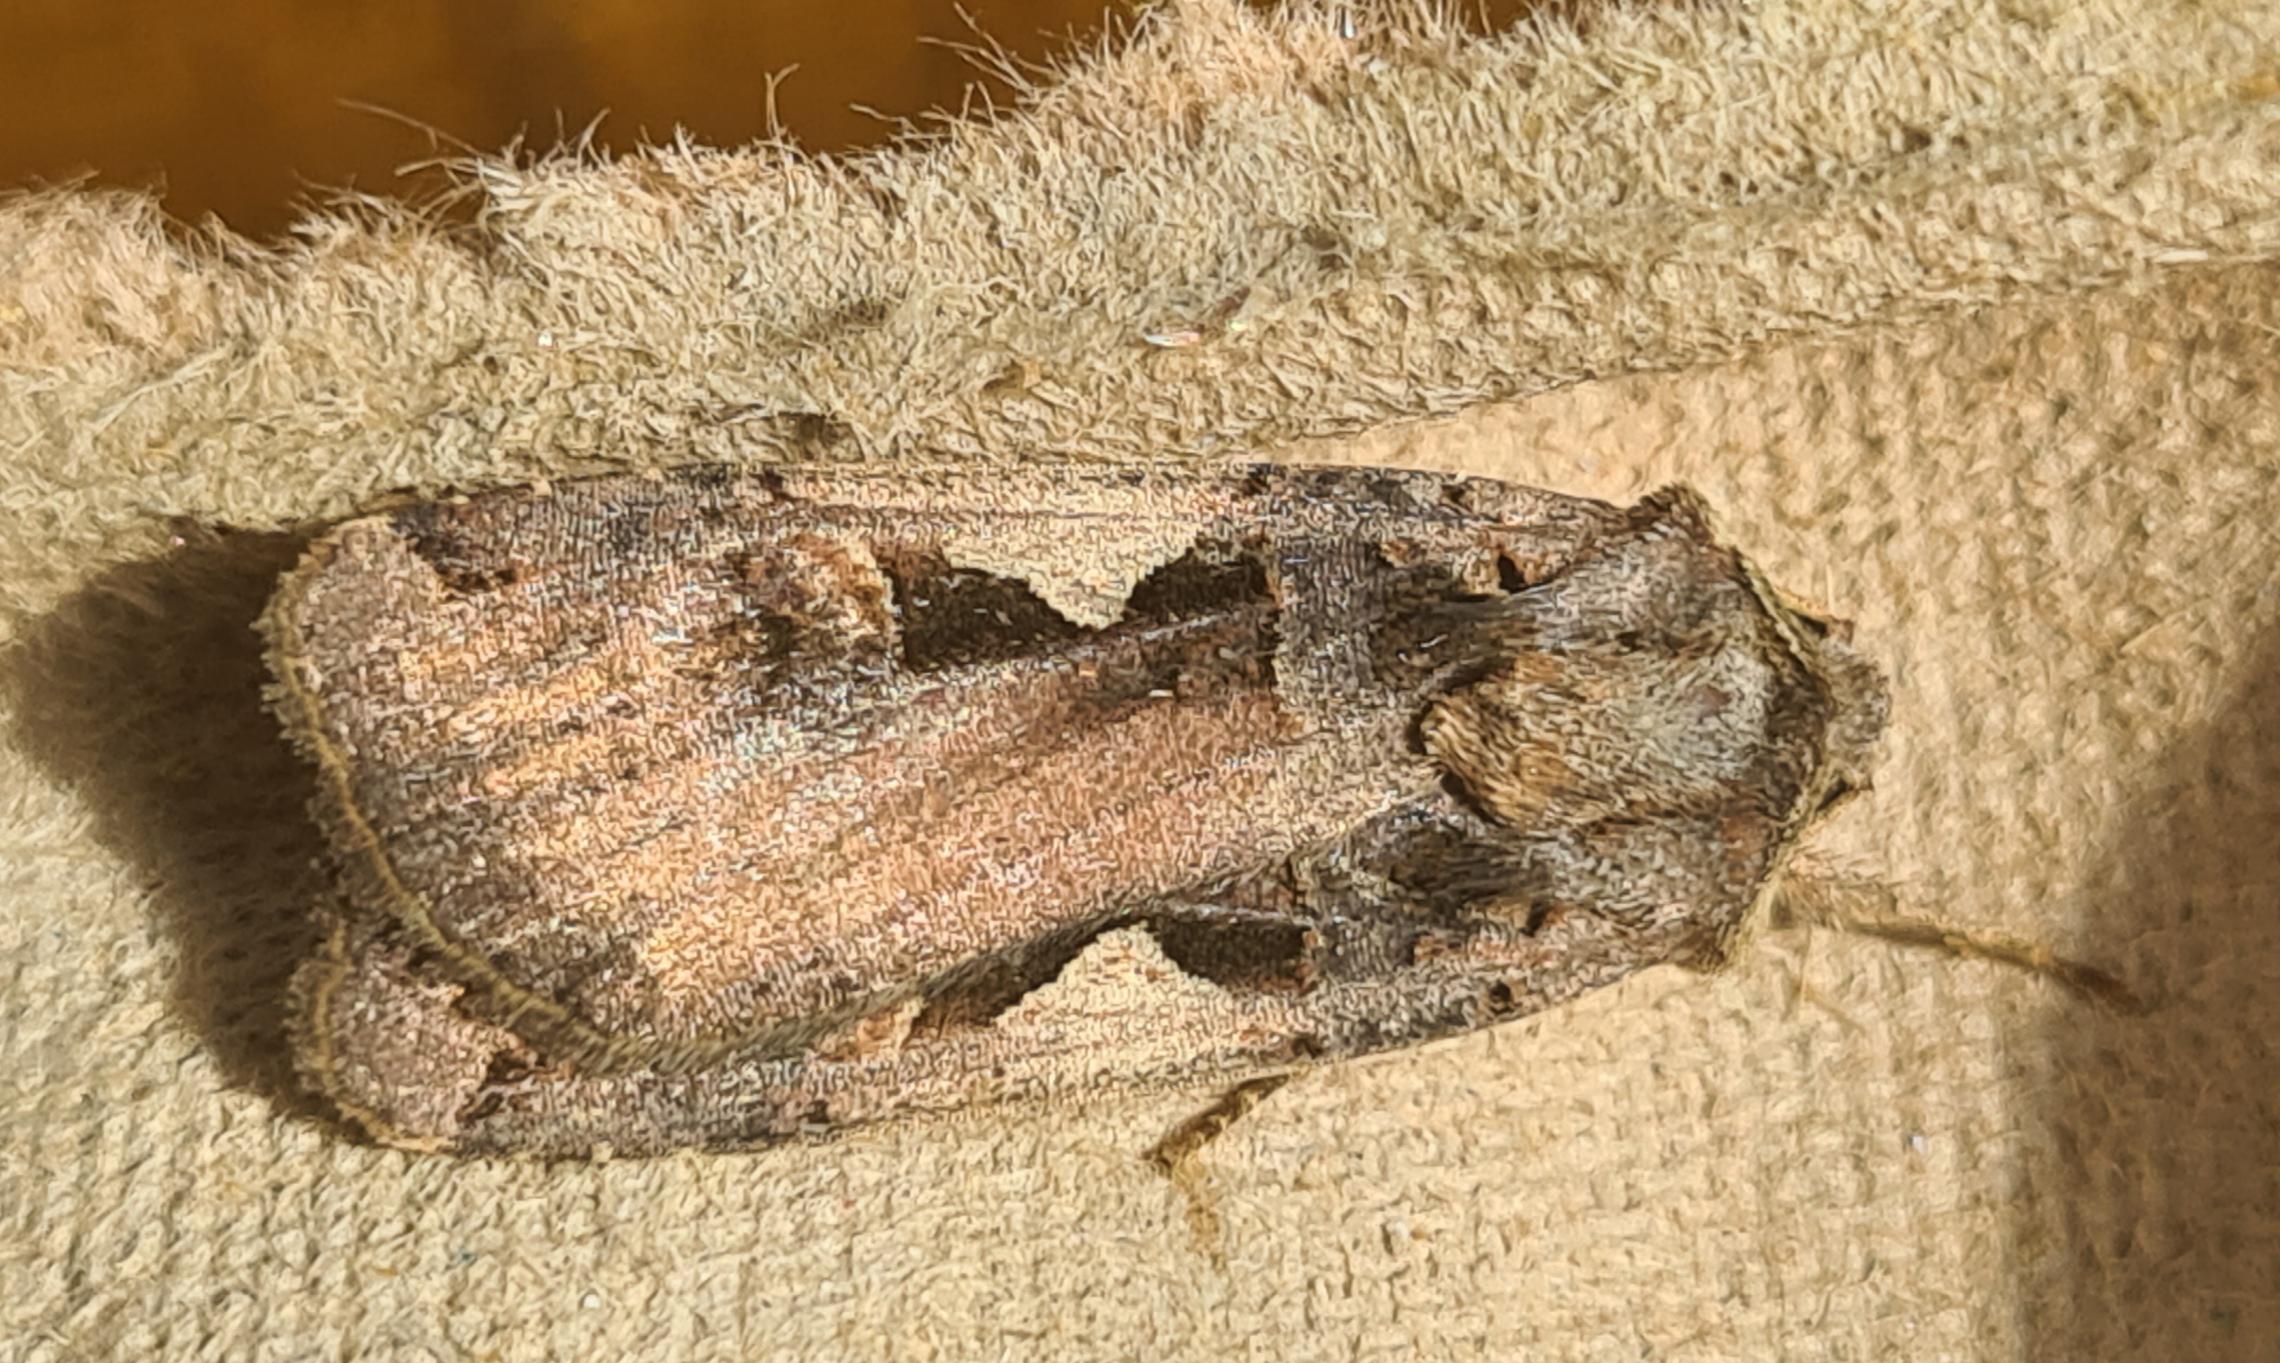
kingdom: Animalia
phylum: Arthropoda
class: Insecta
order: Lepidoptera
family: Noctuidae
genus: Xestia
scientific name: Xestia c-nigrum
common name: Det sorte c
